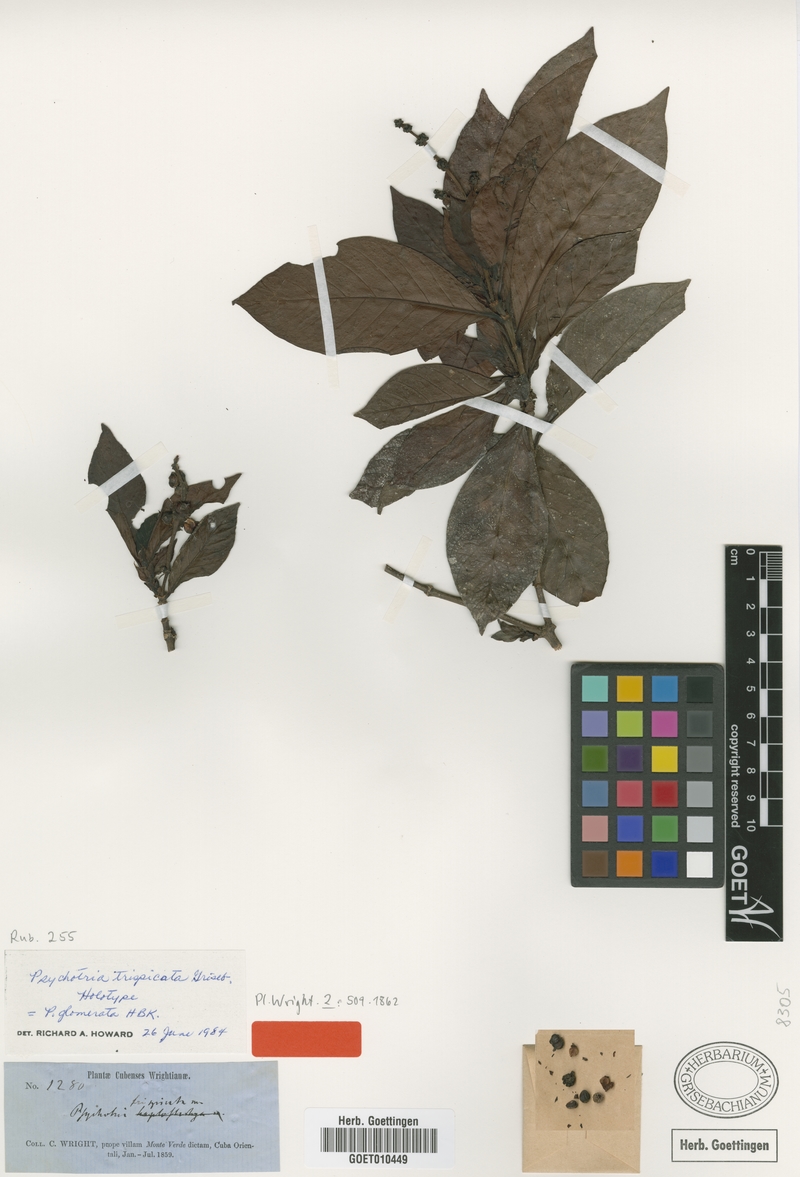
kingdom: Plantae
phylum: Tracheophyta
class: Magnoliopsida
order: Gentianales
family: Rubiaceae
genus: Psychotria
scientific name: Psychotria viridis
